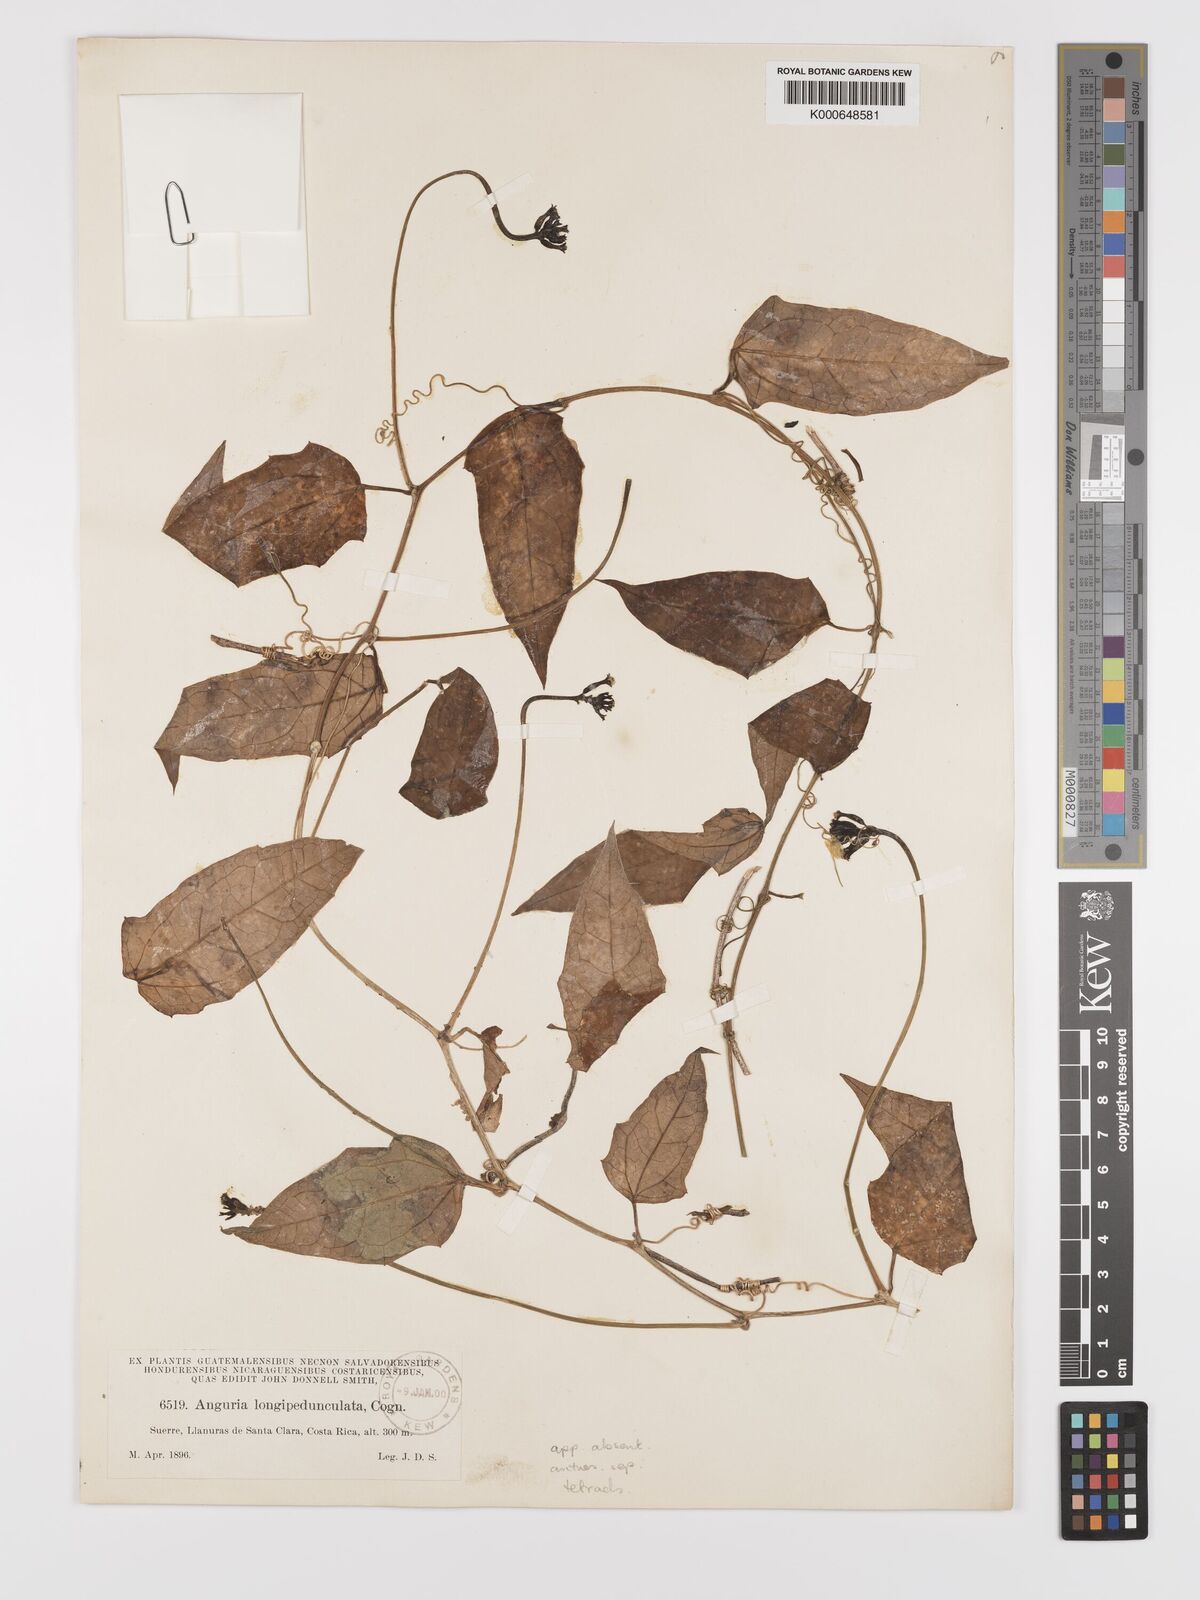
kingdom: Plantae
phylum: Tracheophyta
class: Magnoliopsida
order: Cucurbitales
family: Cucurbitaceae
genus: Psiguria
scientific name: Psiguria triphylla
